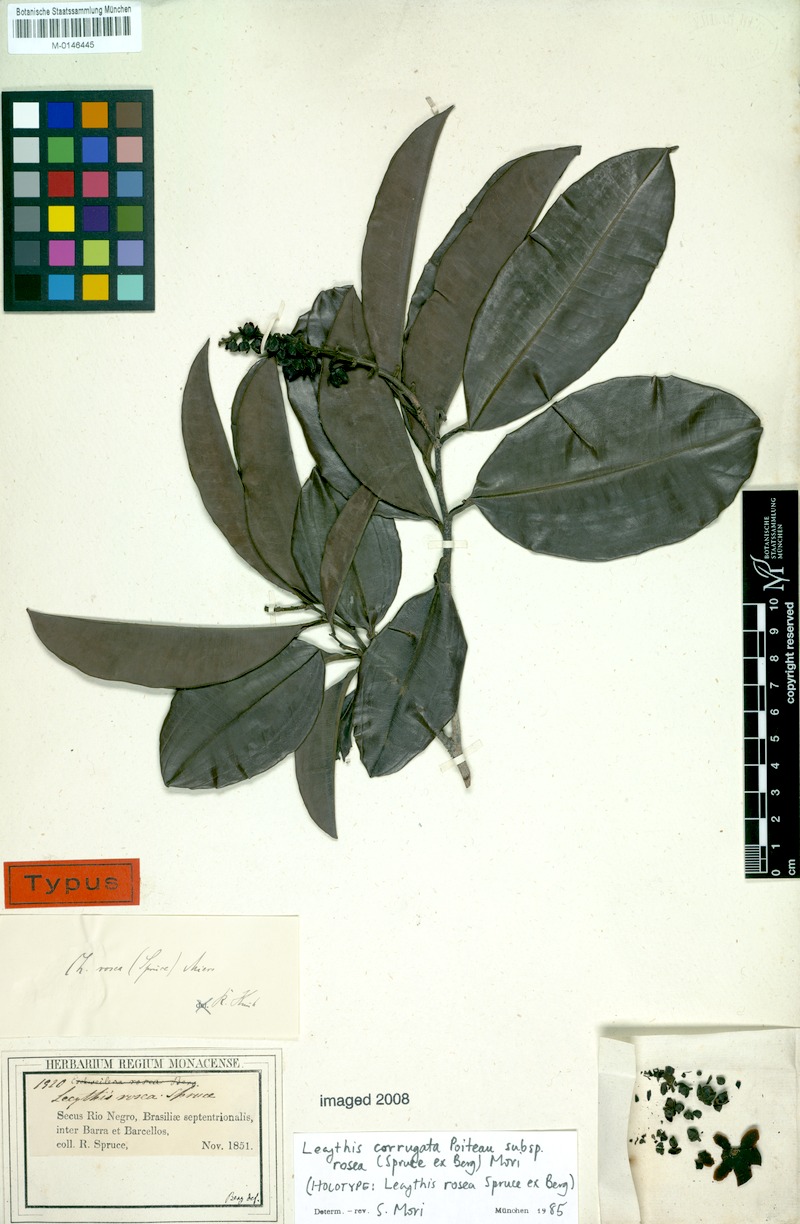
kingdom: Plantae
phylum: Tracheophyta
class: Magnoliopsida
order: Ericales
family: Lecythidaceae
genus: Lecythis
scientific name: Lecythis corrugata
